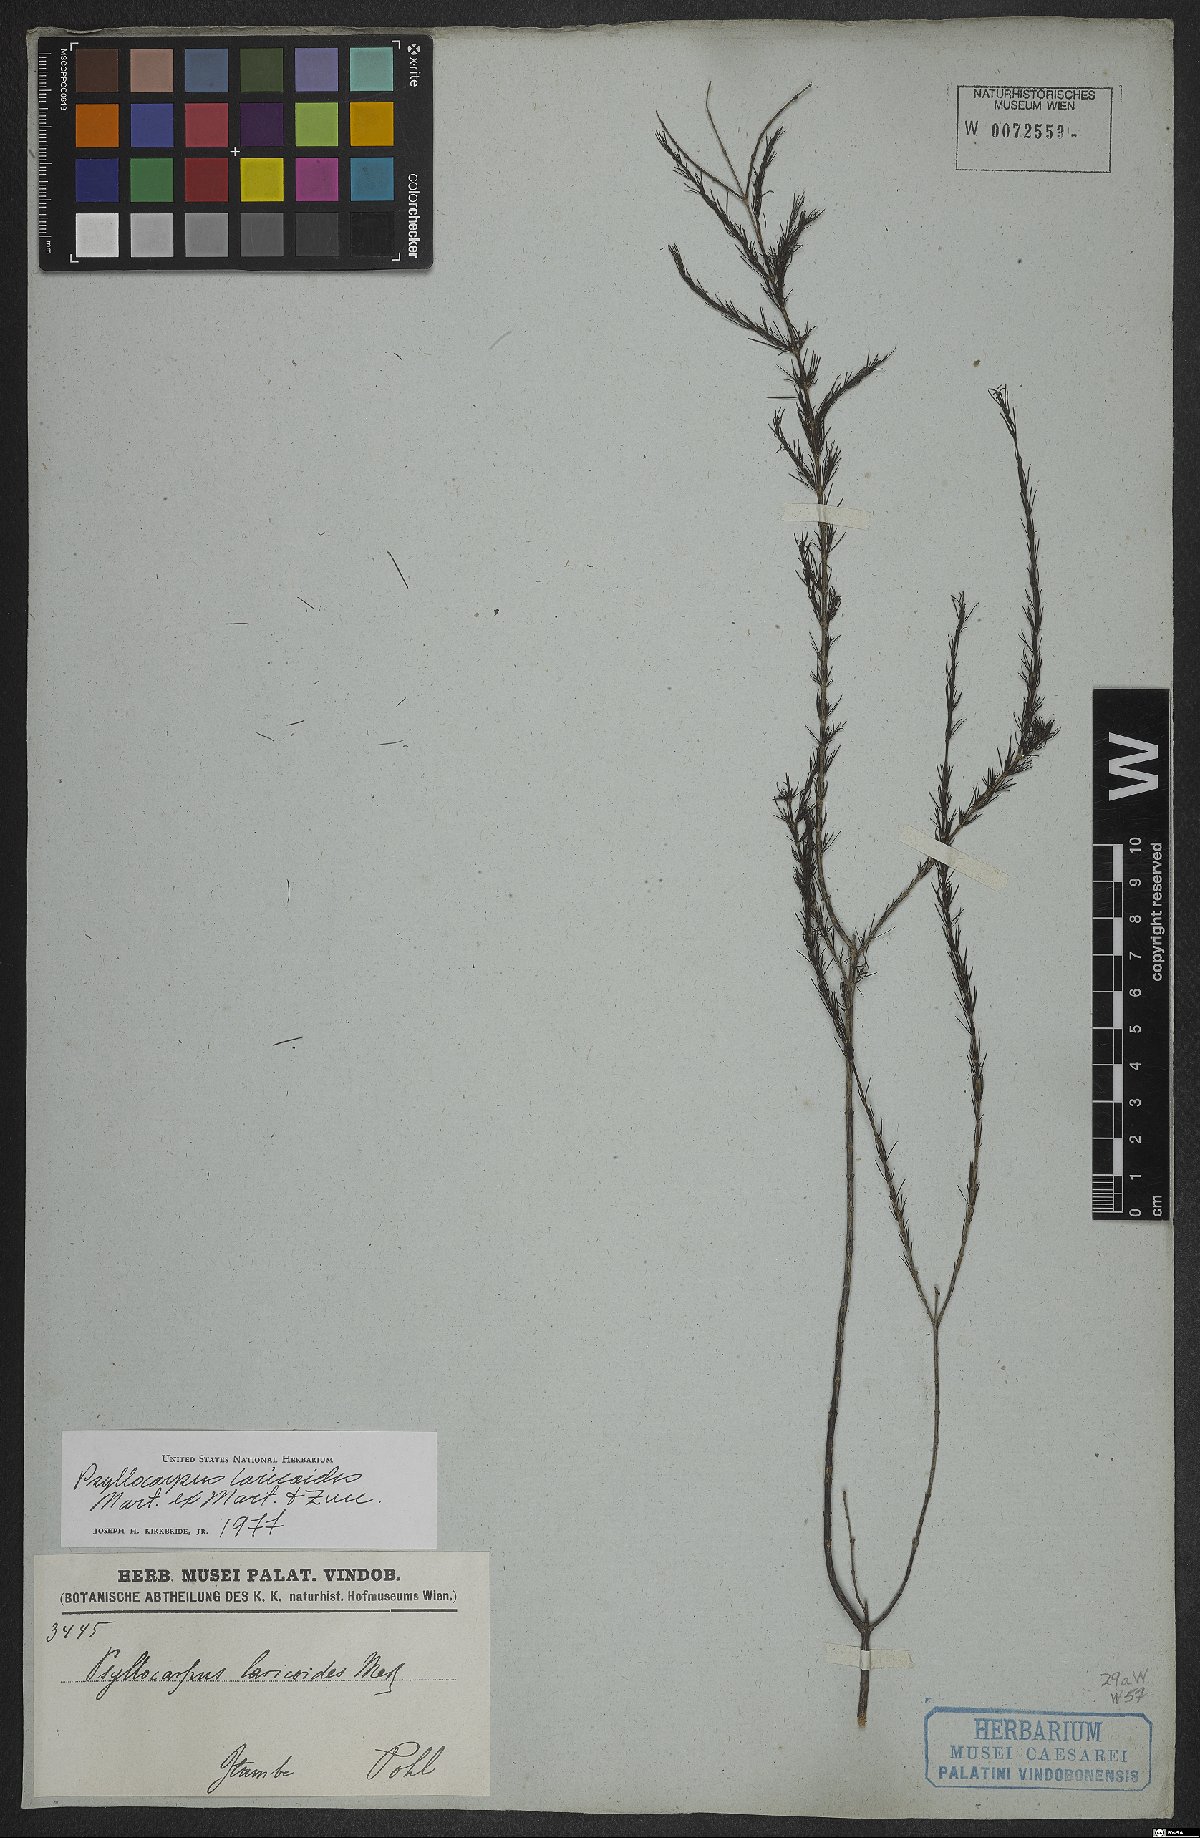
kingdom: Plantae
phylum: Tracheophyta
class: Magnoliopsida
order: Gentianales
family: Rubiaceae
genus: Psyllocarpus
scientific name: Psyllocarpus laricoides
